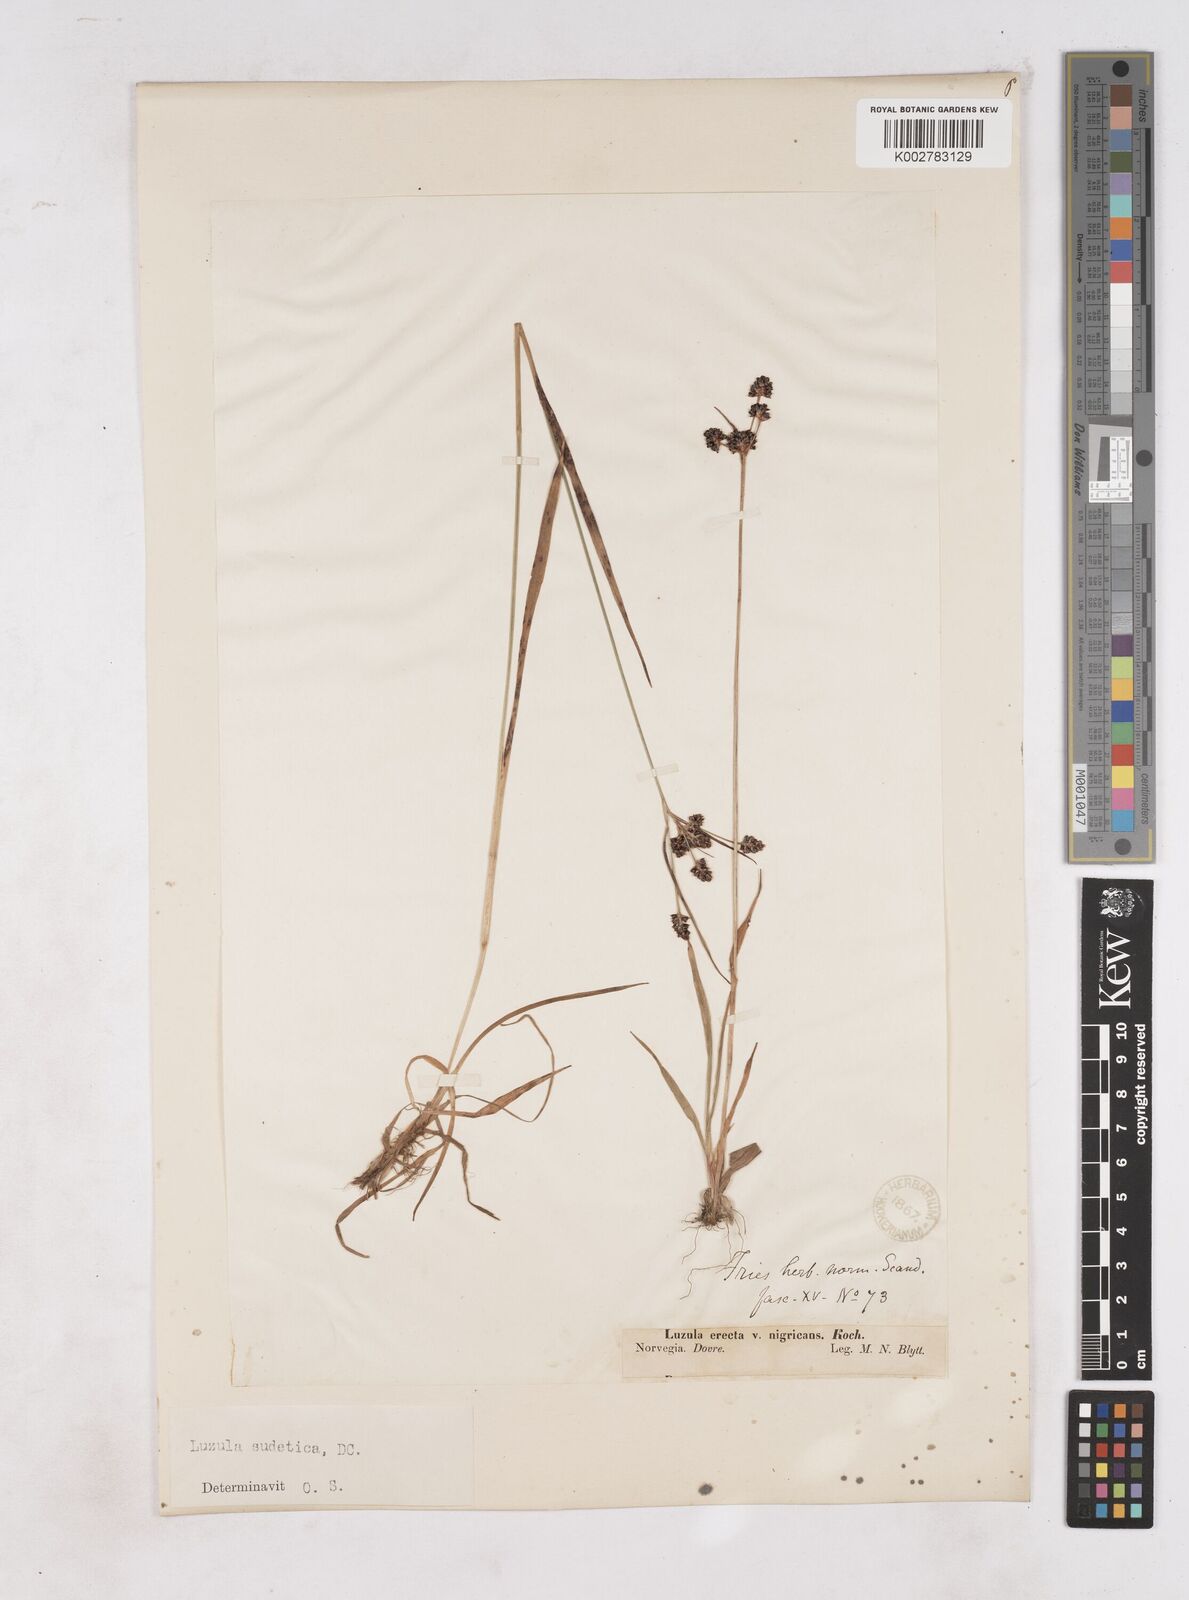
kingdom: Plantae
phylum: Tracheophyta
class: Liliopsida
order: Poales
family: Juncaceae
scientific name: Juncaceae
